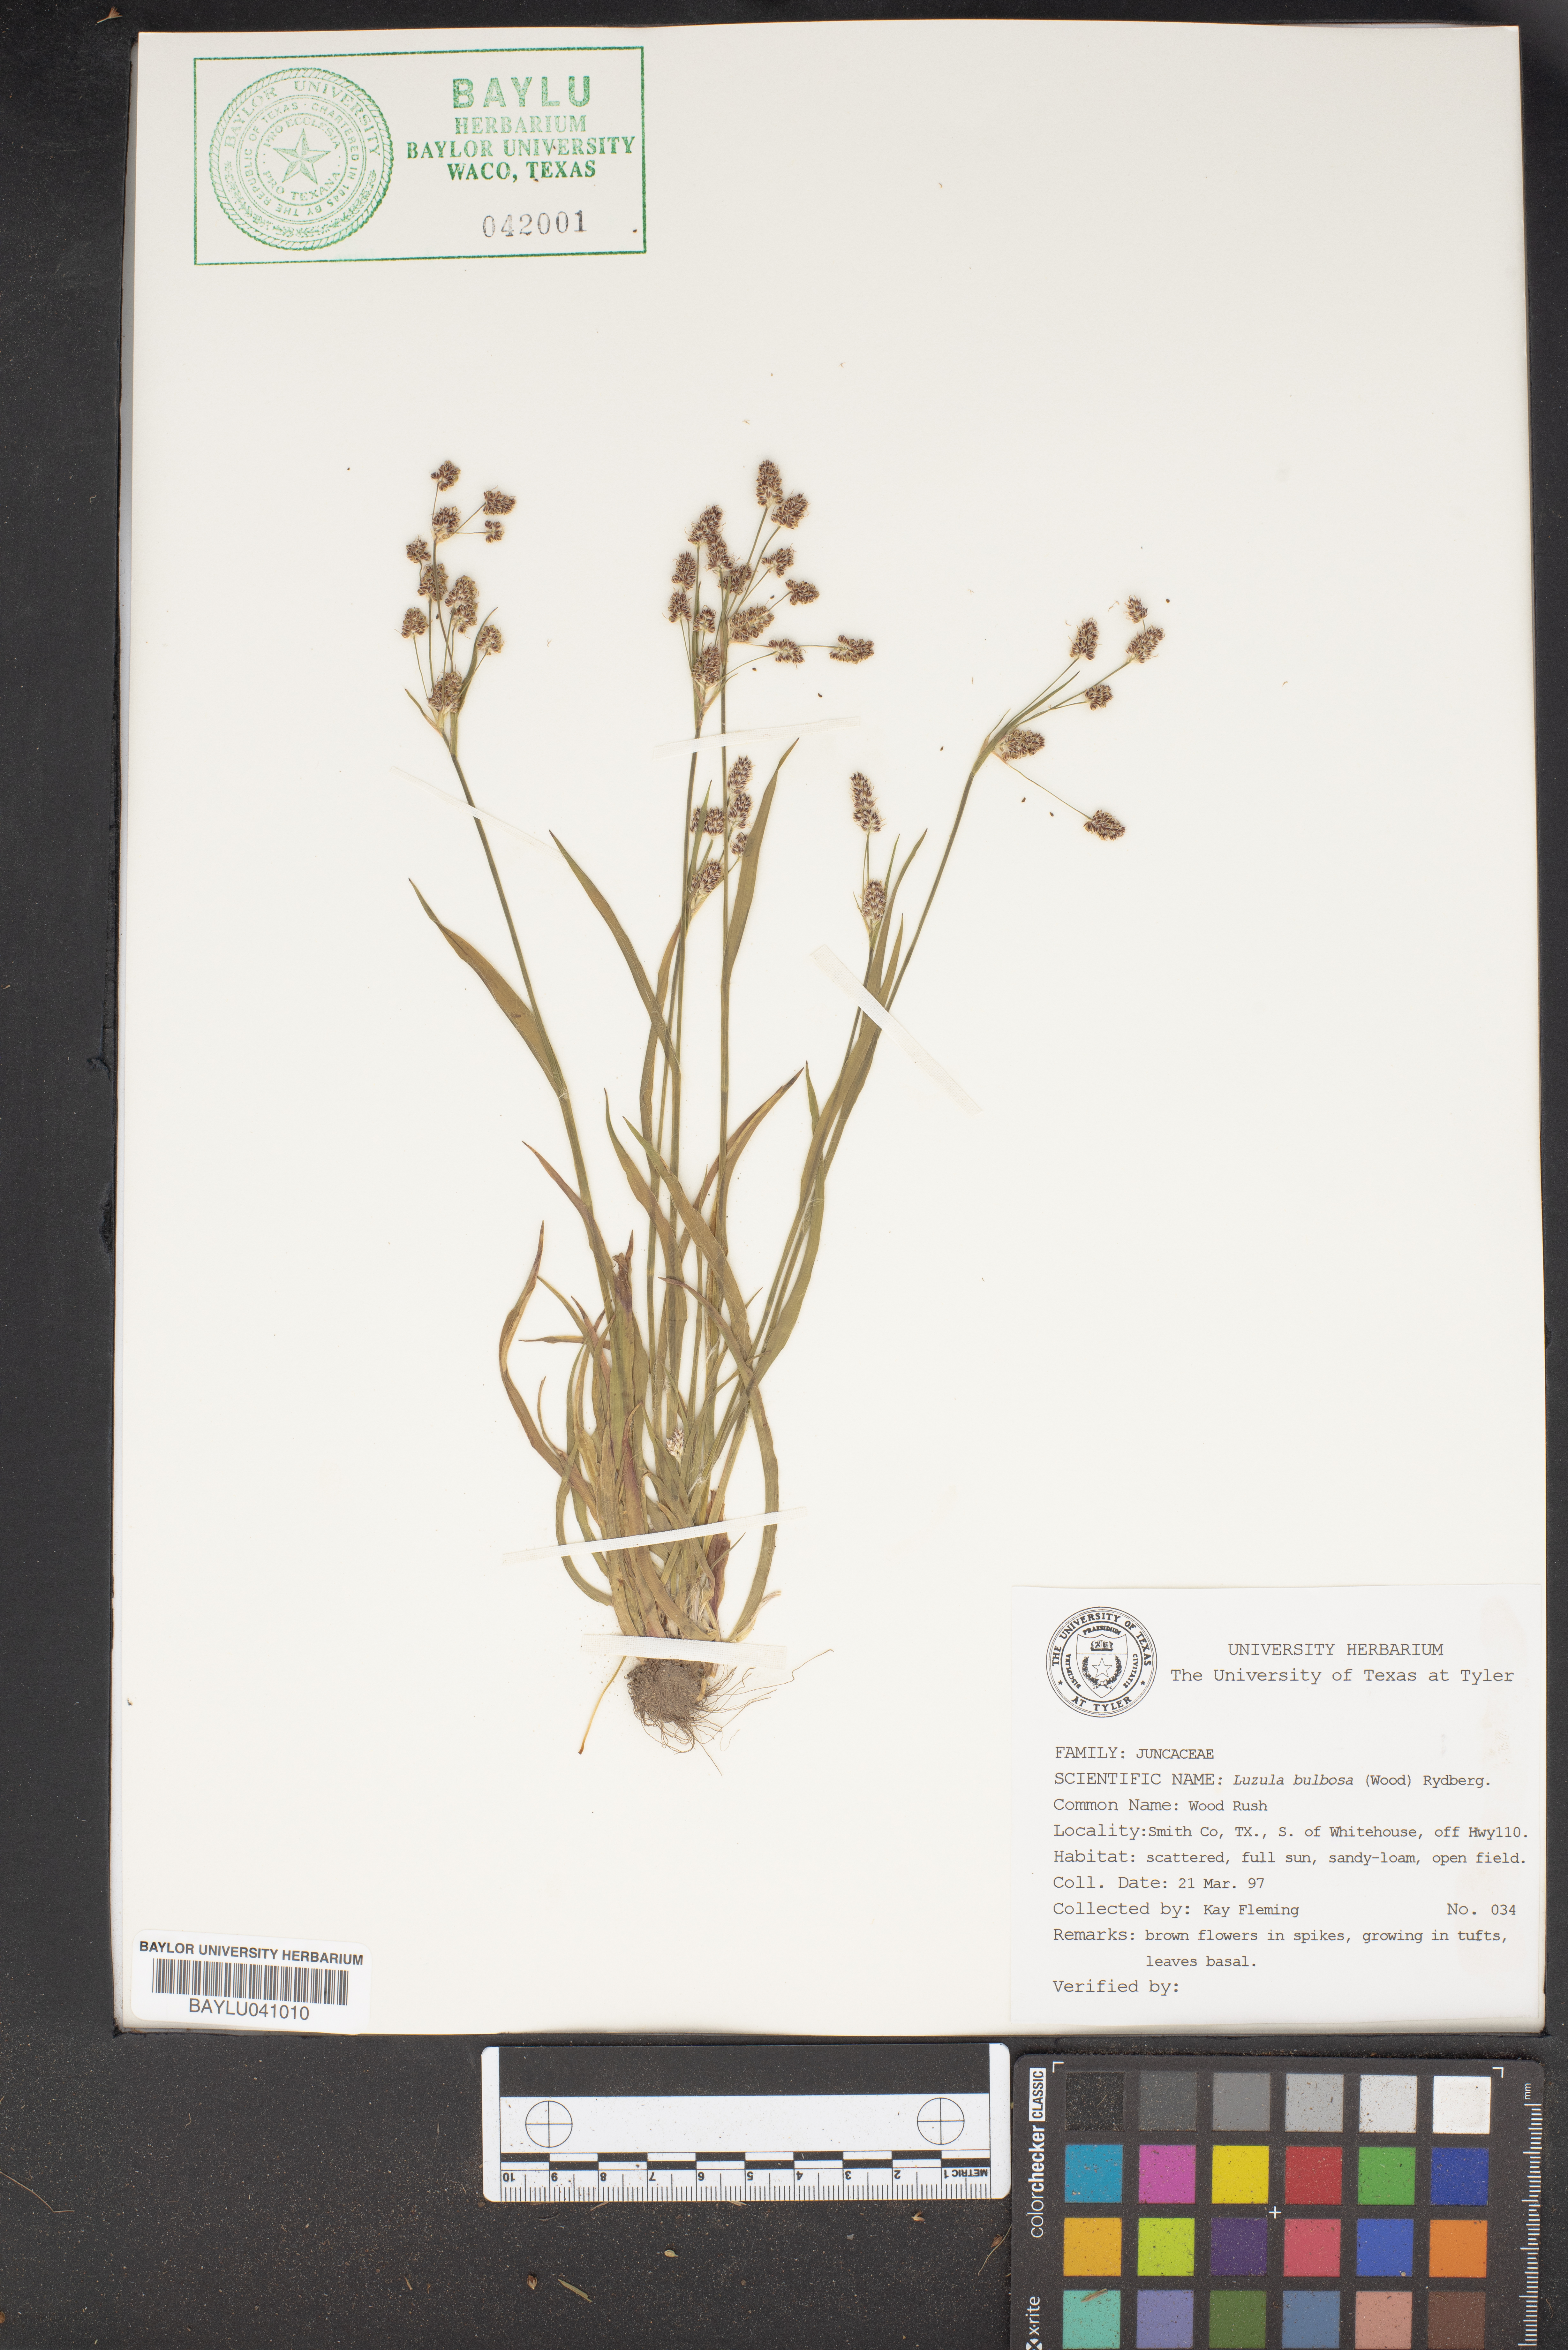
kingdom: Plantae
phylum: Tracheophyta
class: Liliopsida
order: Poales
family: Juncaceae
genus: Luzula
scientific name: Luzula bulbosa
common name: Bulbous woodrush
